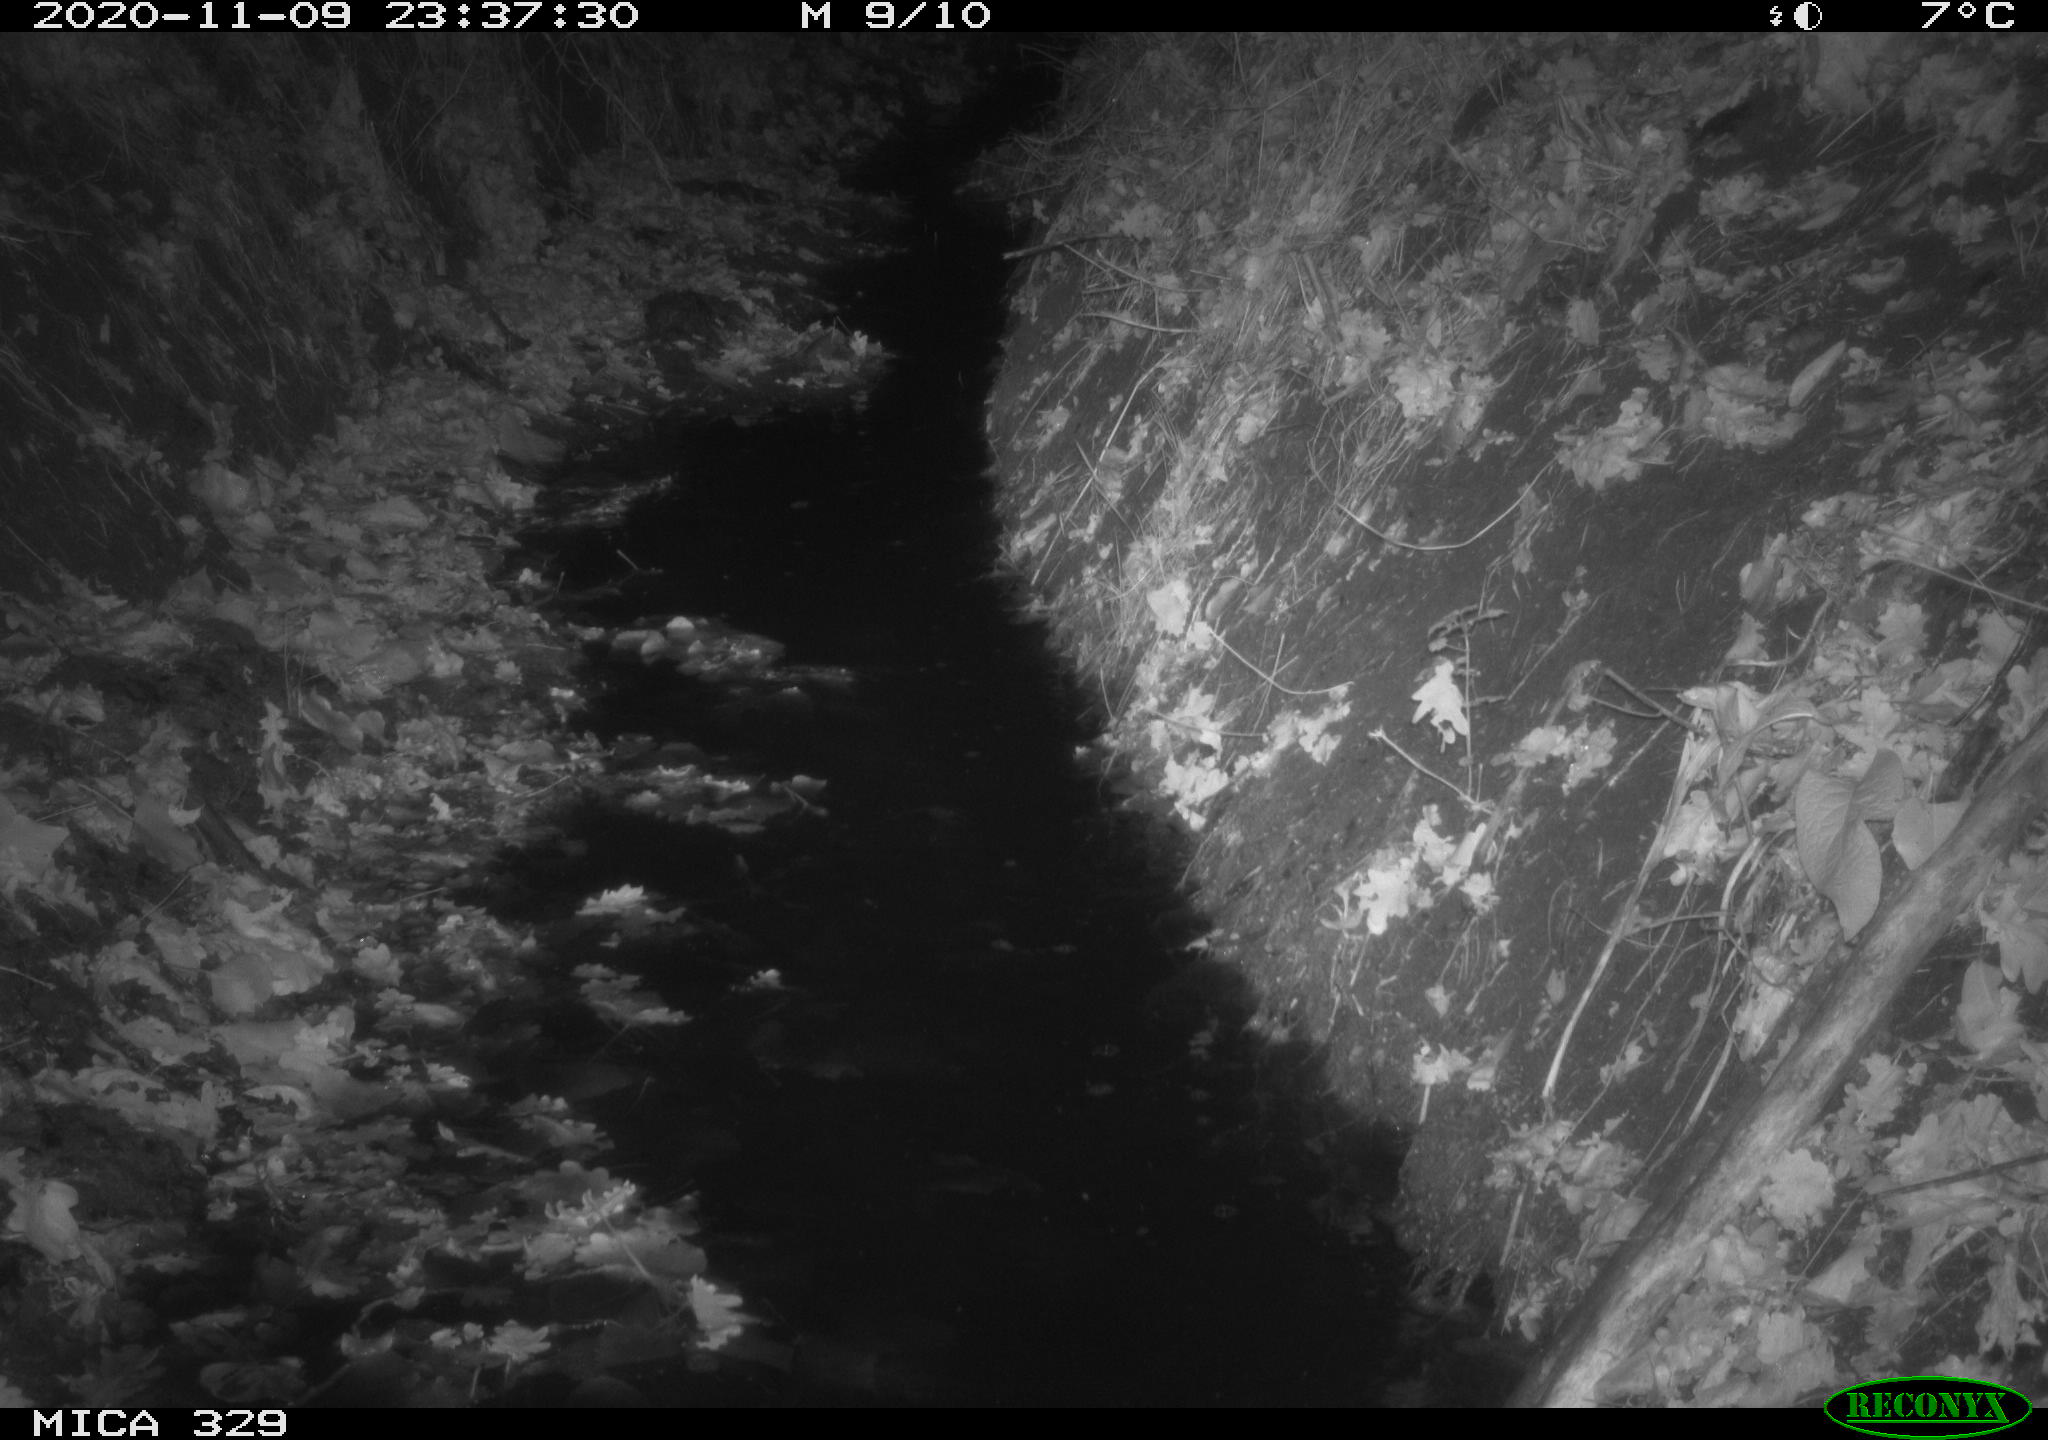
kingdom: Animalia
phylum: Chordata
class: Mammalia
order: Rodentia
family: Muridae
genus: Rattus
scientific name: Rattus norvegicus
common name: Brown rat
